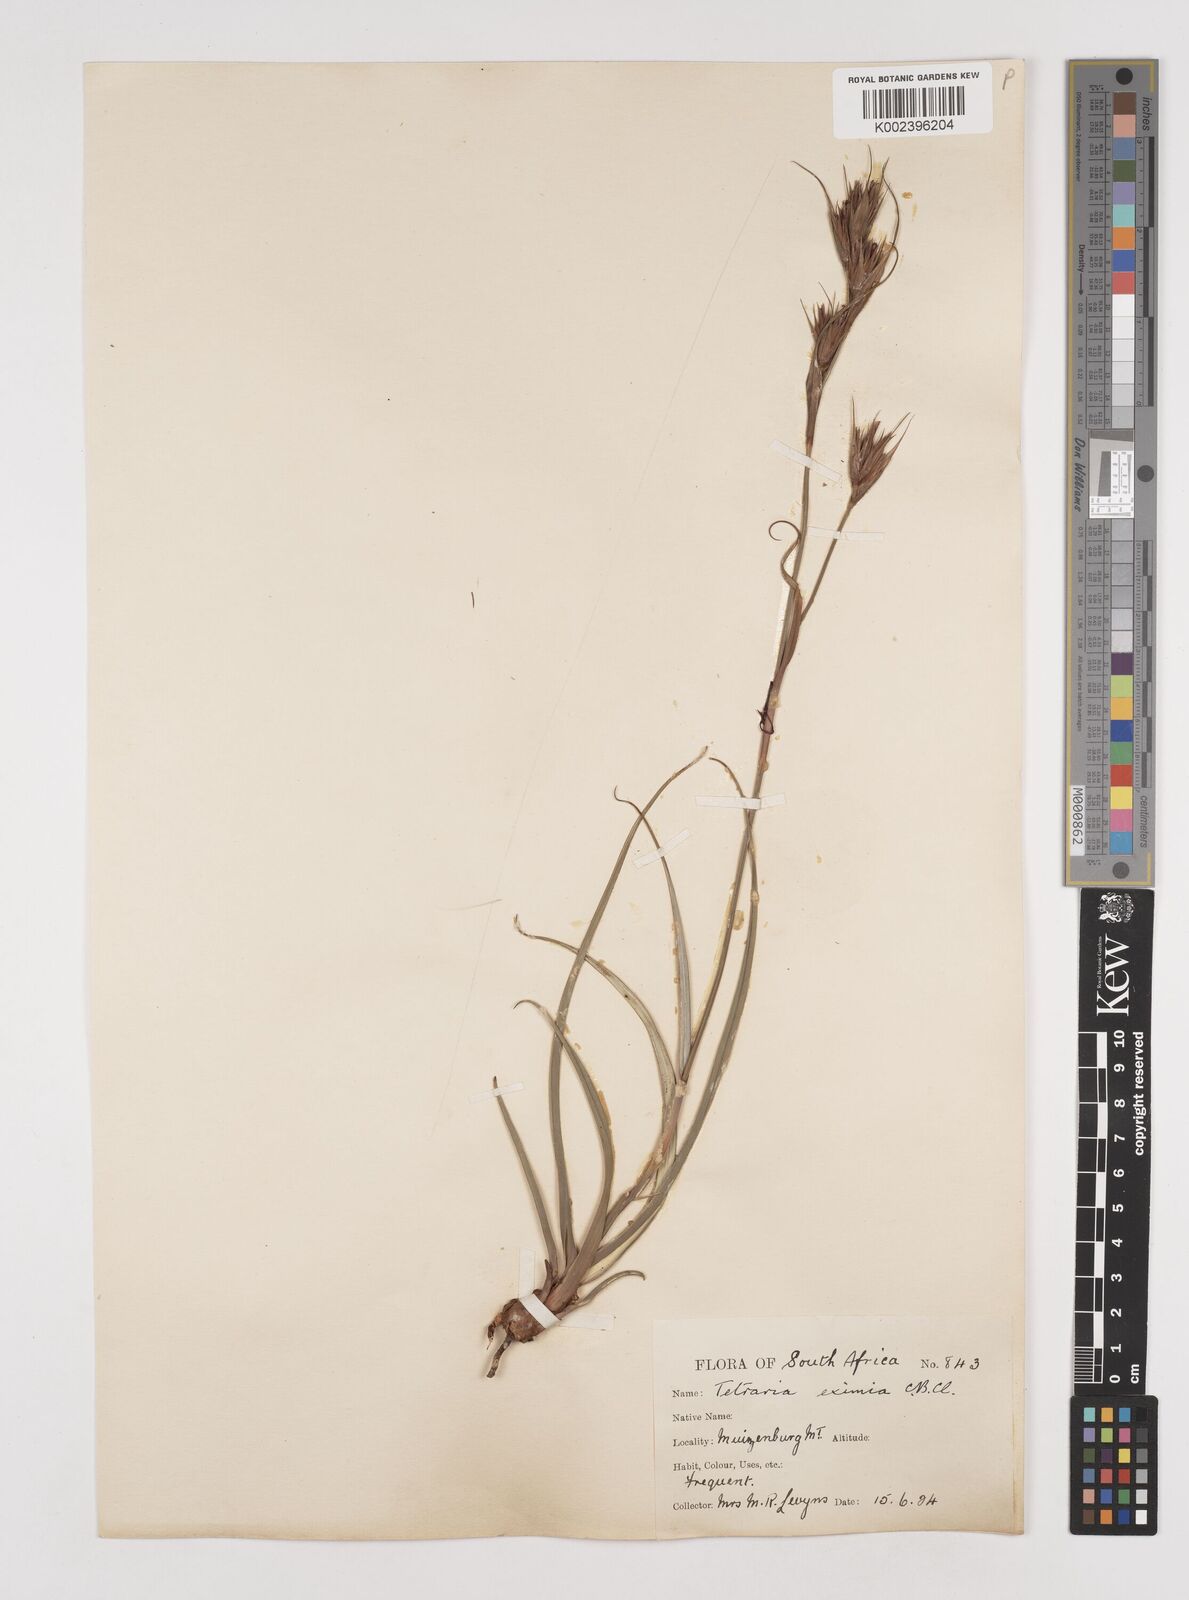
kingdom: Plantae
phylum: Tracheophyta
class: Liliopsida
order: Poales
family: Cyperaceae
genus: Tetraria
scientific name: Tetraria eximia
